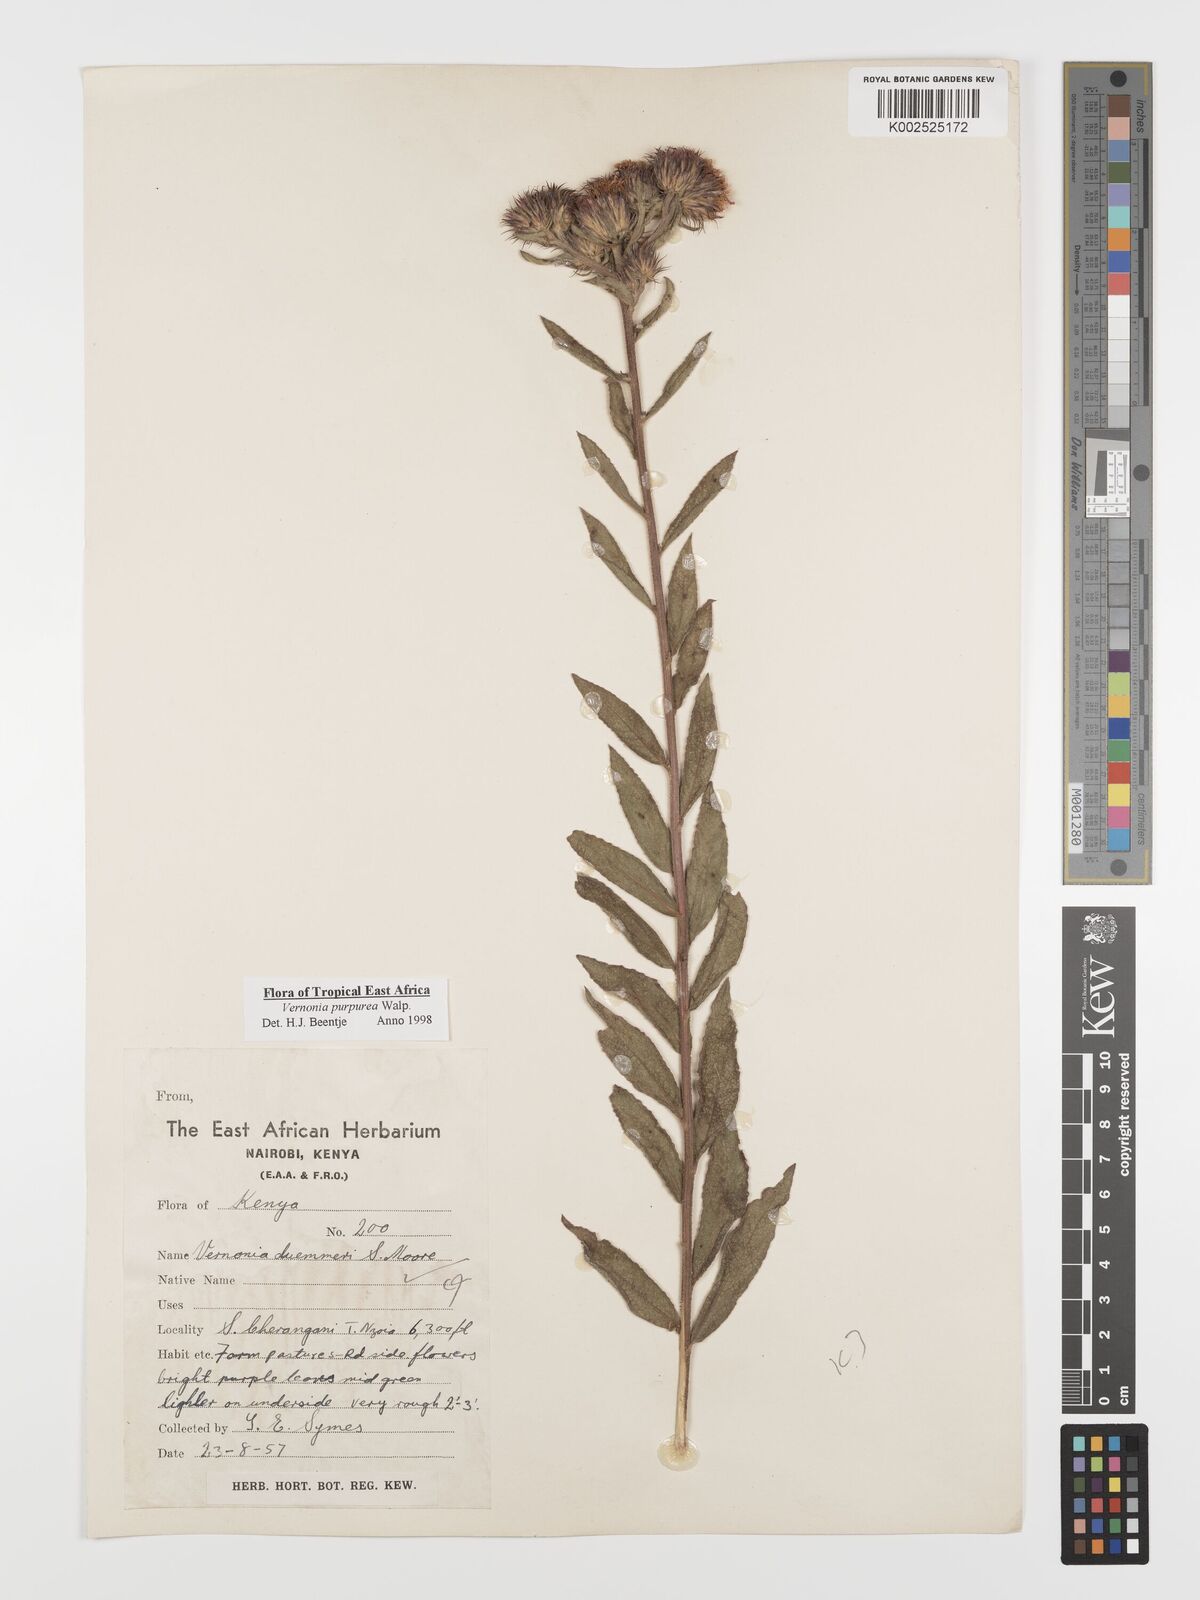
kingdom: Plantae
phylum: Tracheophyta
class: Magnoliopsida
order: Asterales
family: Asteraceae
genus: Nothovernonia
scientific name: Nothovernonia purpurea
